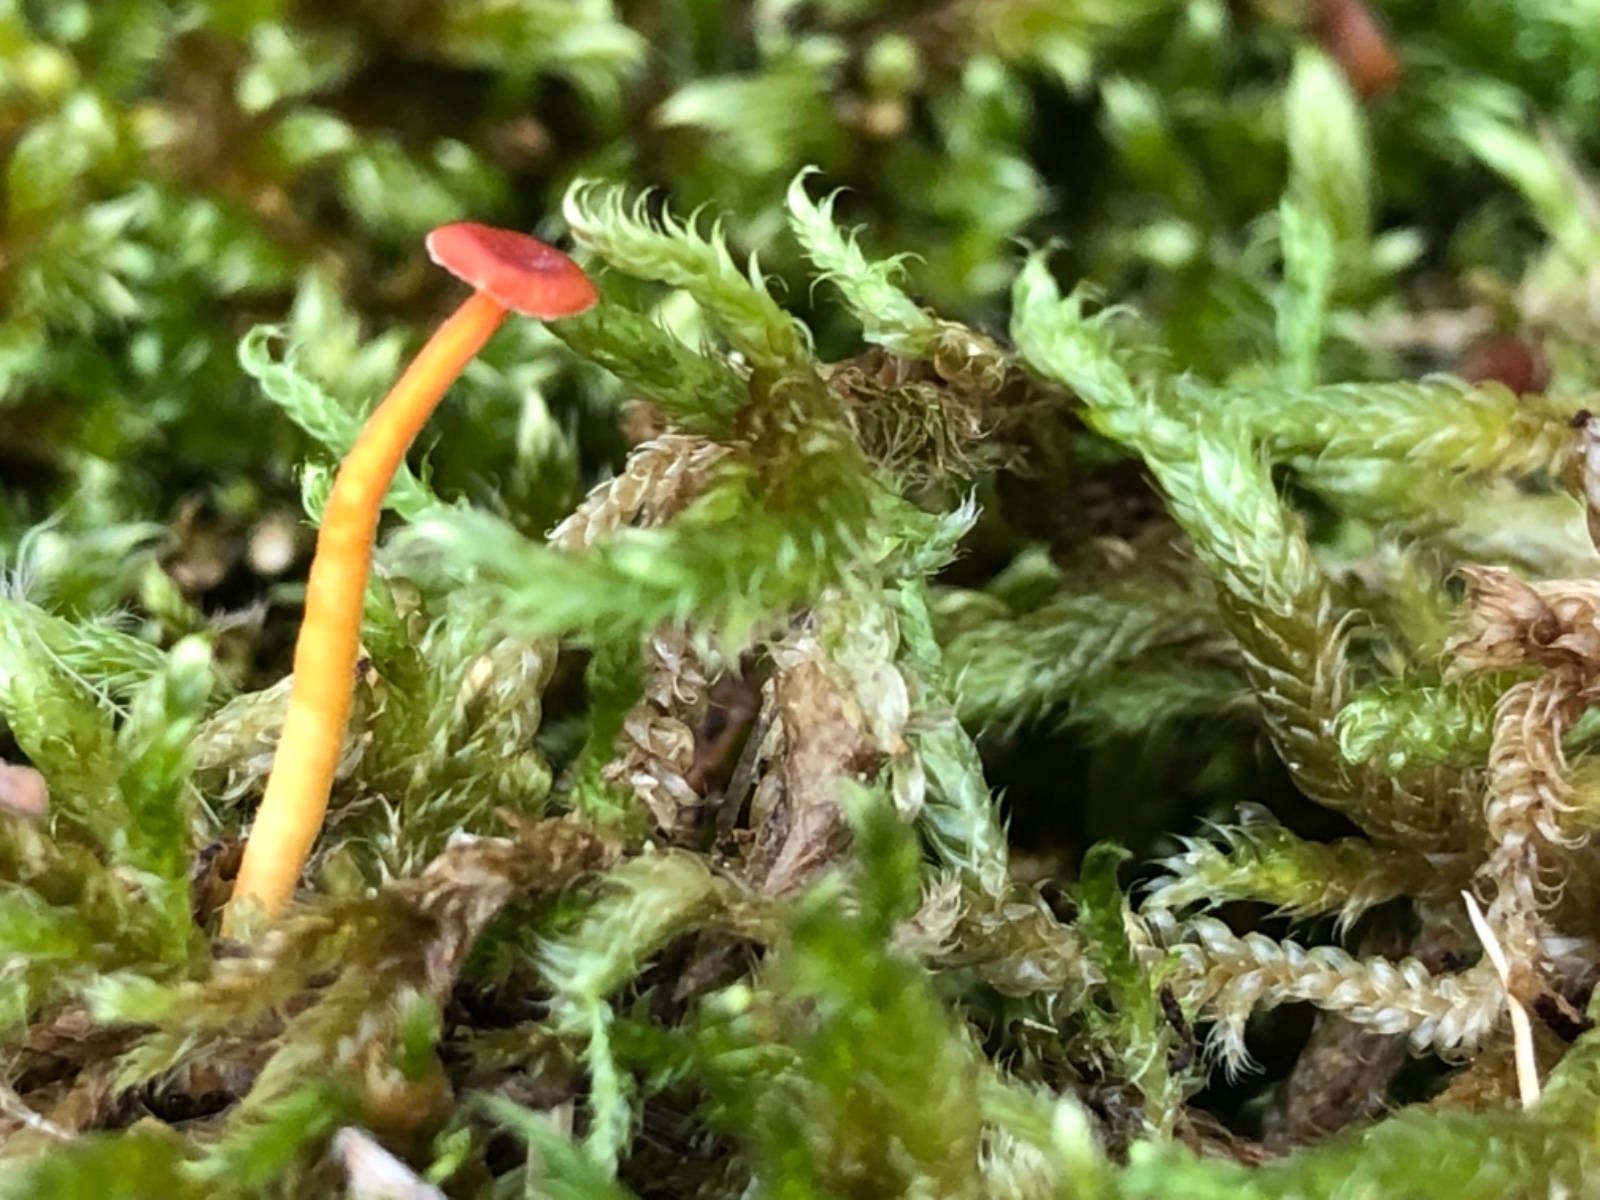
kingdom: Fungi
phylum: Basidiomycota
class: Agaricomycetes
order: Hymenochaetales
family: Rickenellaceae
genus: Rickenella
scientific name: Rickenella fibula
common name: orange mosnavlehat
